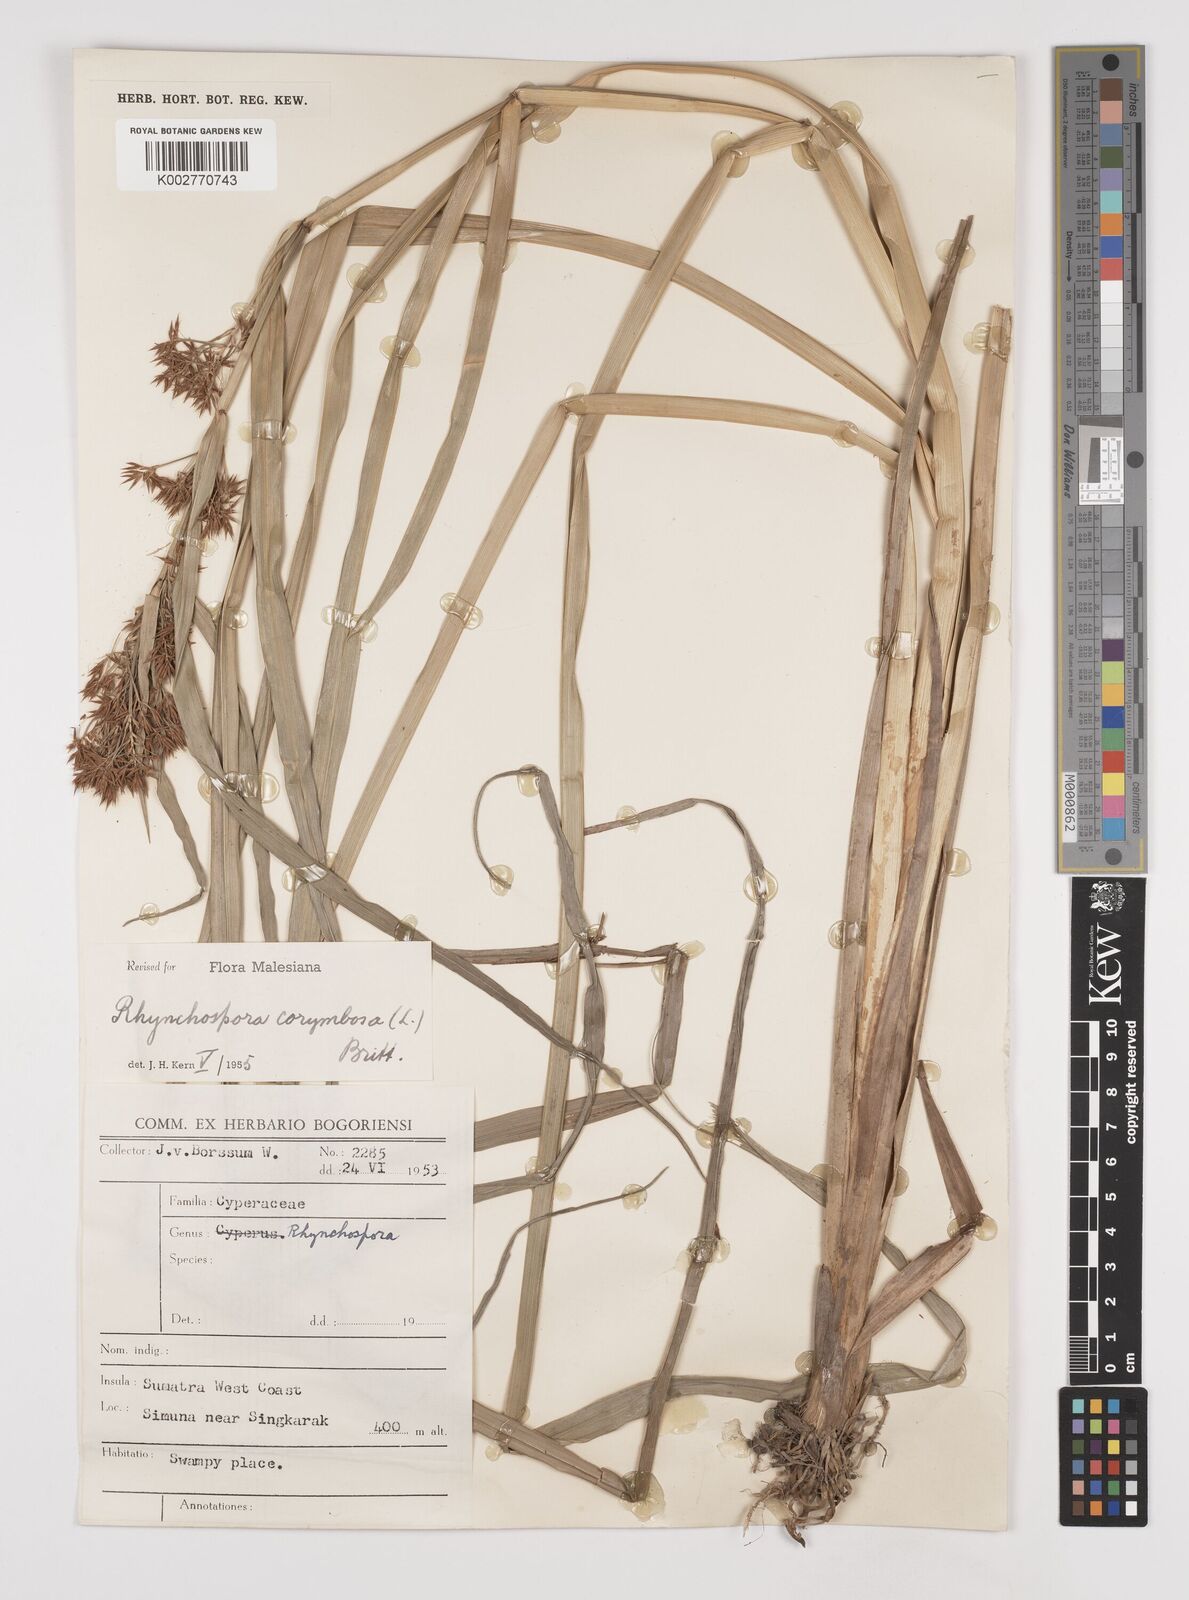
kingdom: Plantae
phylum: Tracheophyta
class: Liliopsida
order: Poales
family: Cyperaceae
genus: Rhynchospora
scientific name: Rhynchospora corymbosa
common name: Golden beak sedge
